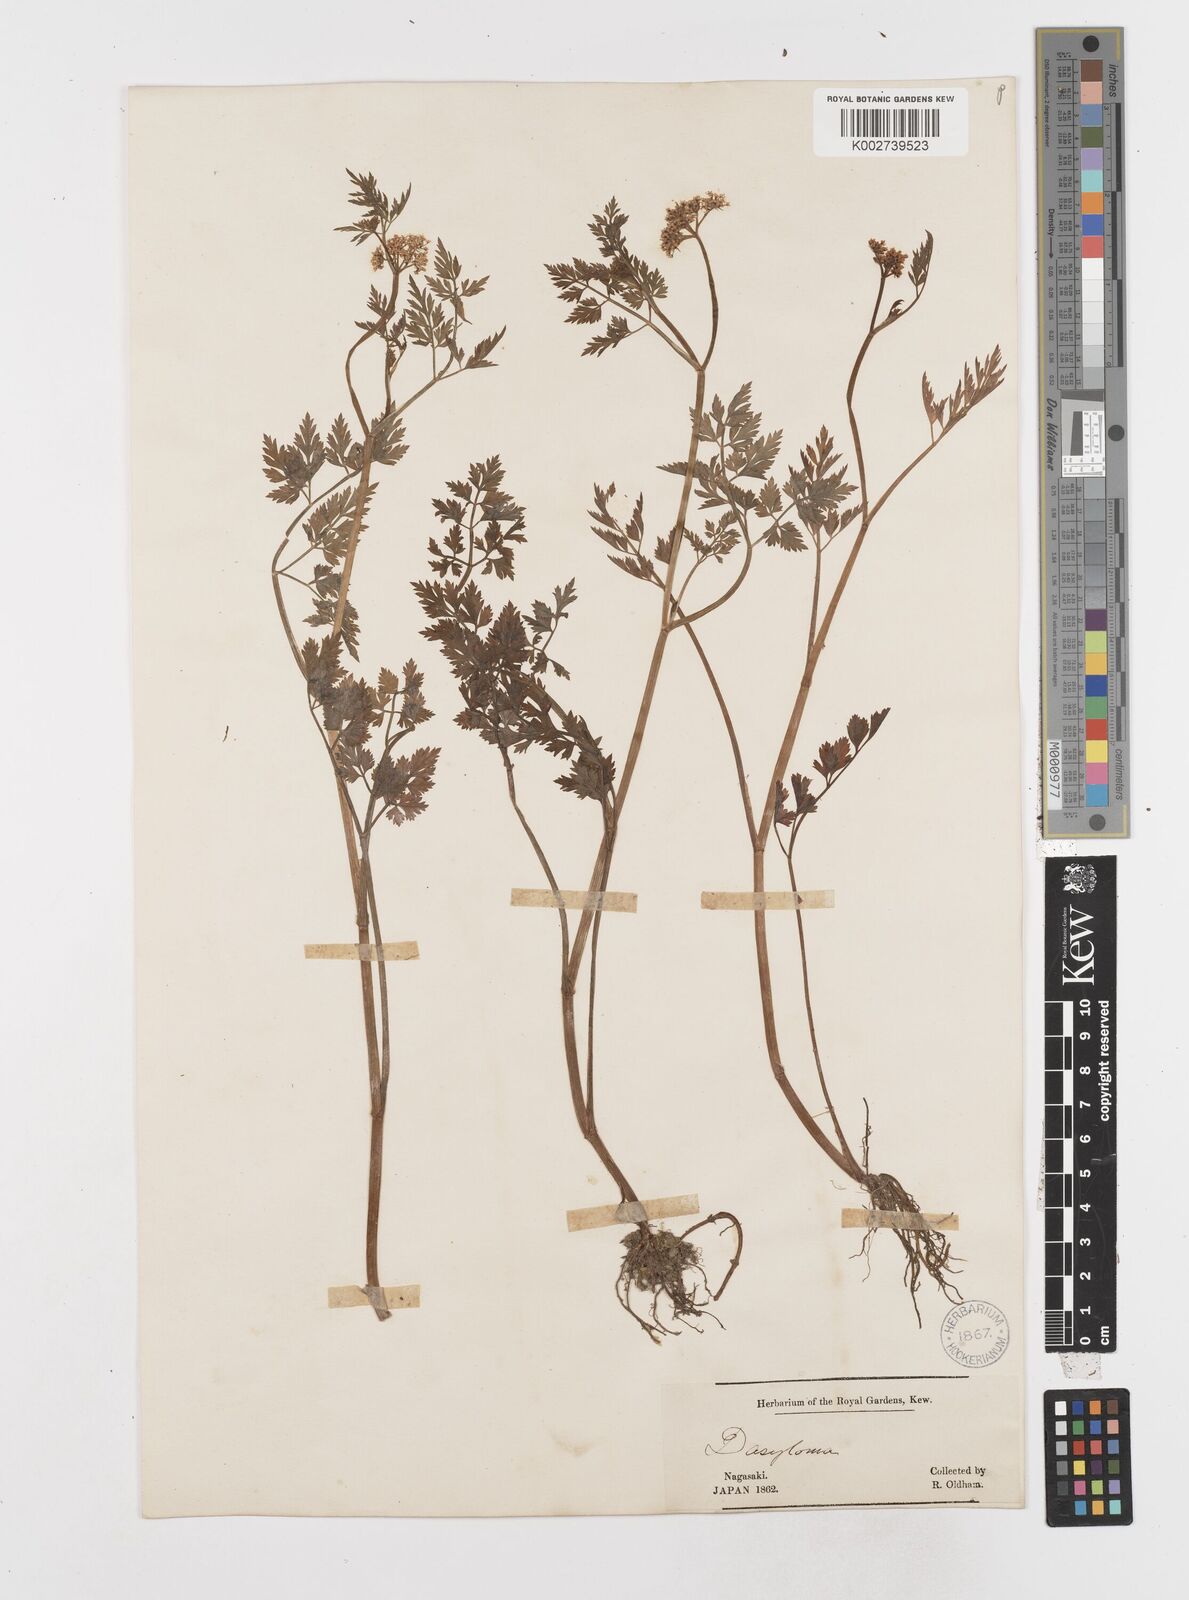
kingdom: Plantae
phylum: Tracheophyta
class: Magnoliopsida
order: Apiales
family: Apiaceae
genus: Oenanthe
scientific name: Oenanthe javanica
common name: Java water-dropwort
